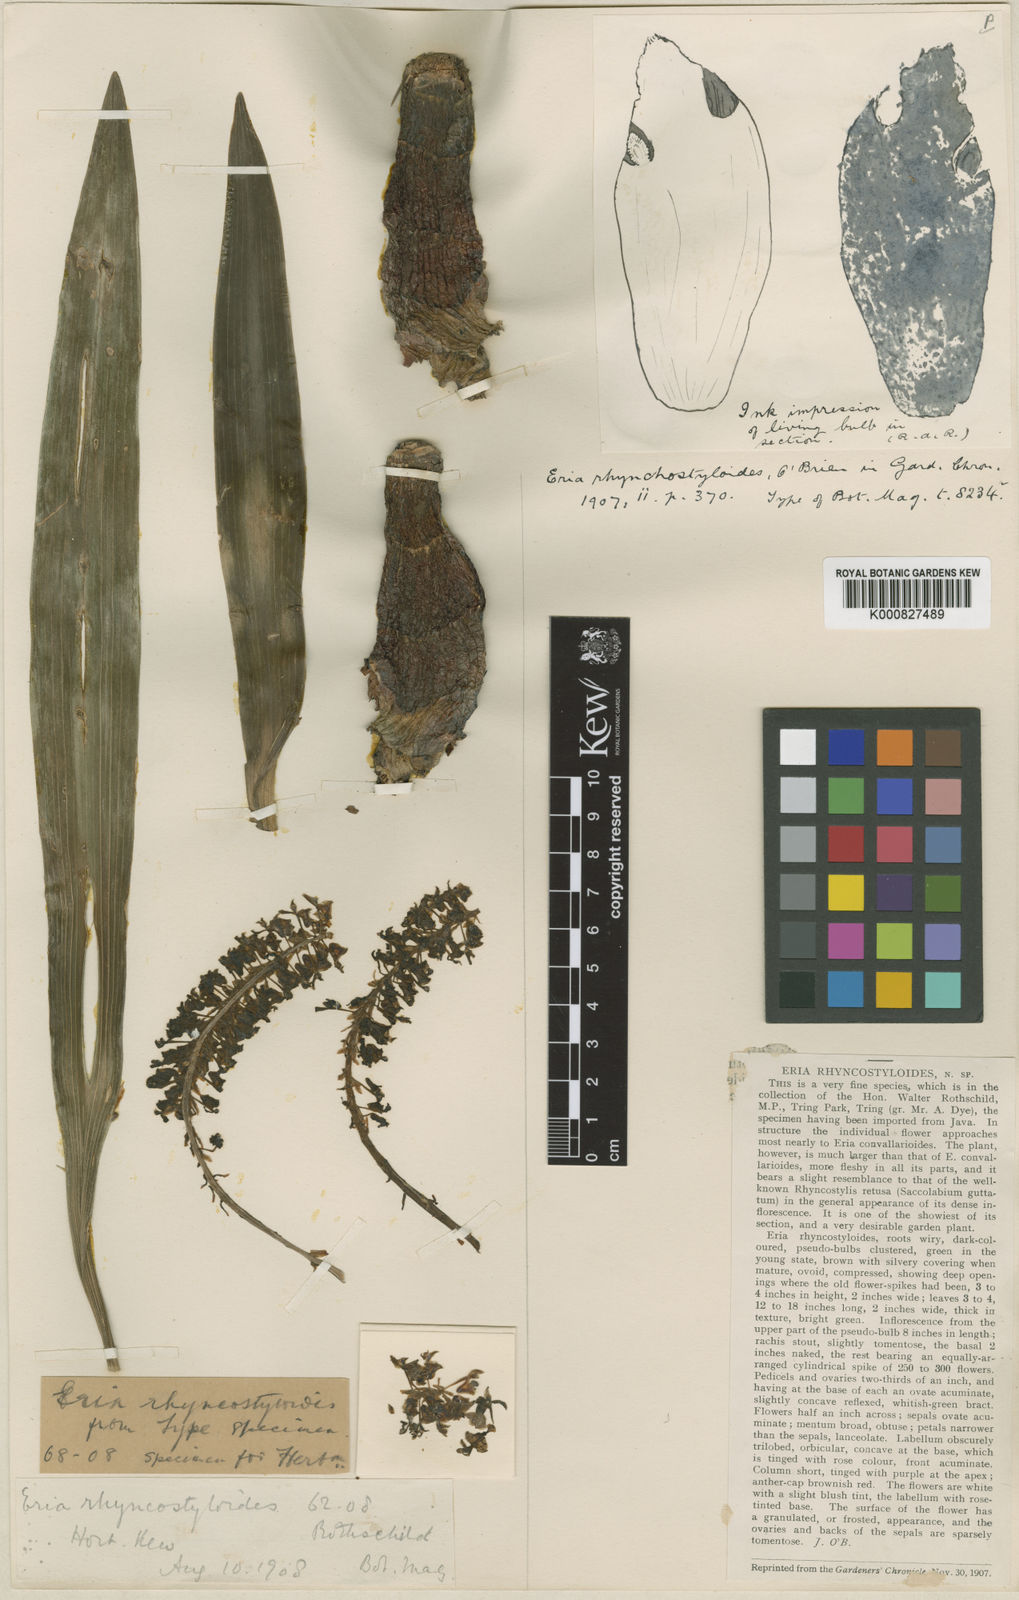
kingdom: Plantae
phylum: Tracheophyta
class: Liliopsida
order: Asparagales
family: Orchidaceae
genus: Pinalia
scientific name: Pinalia rhynchostyloides
